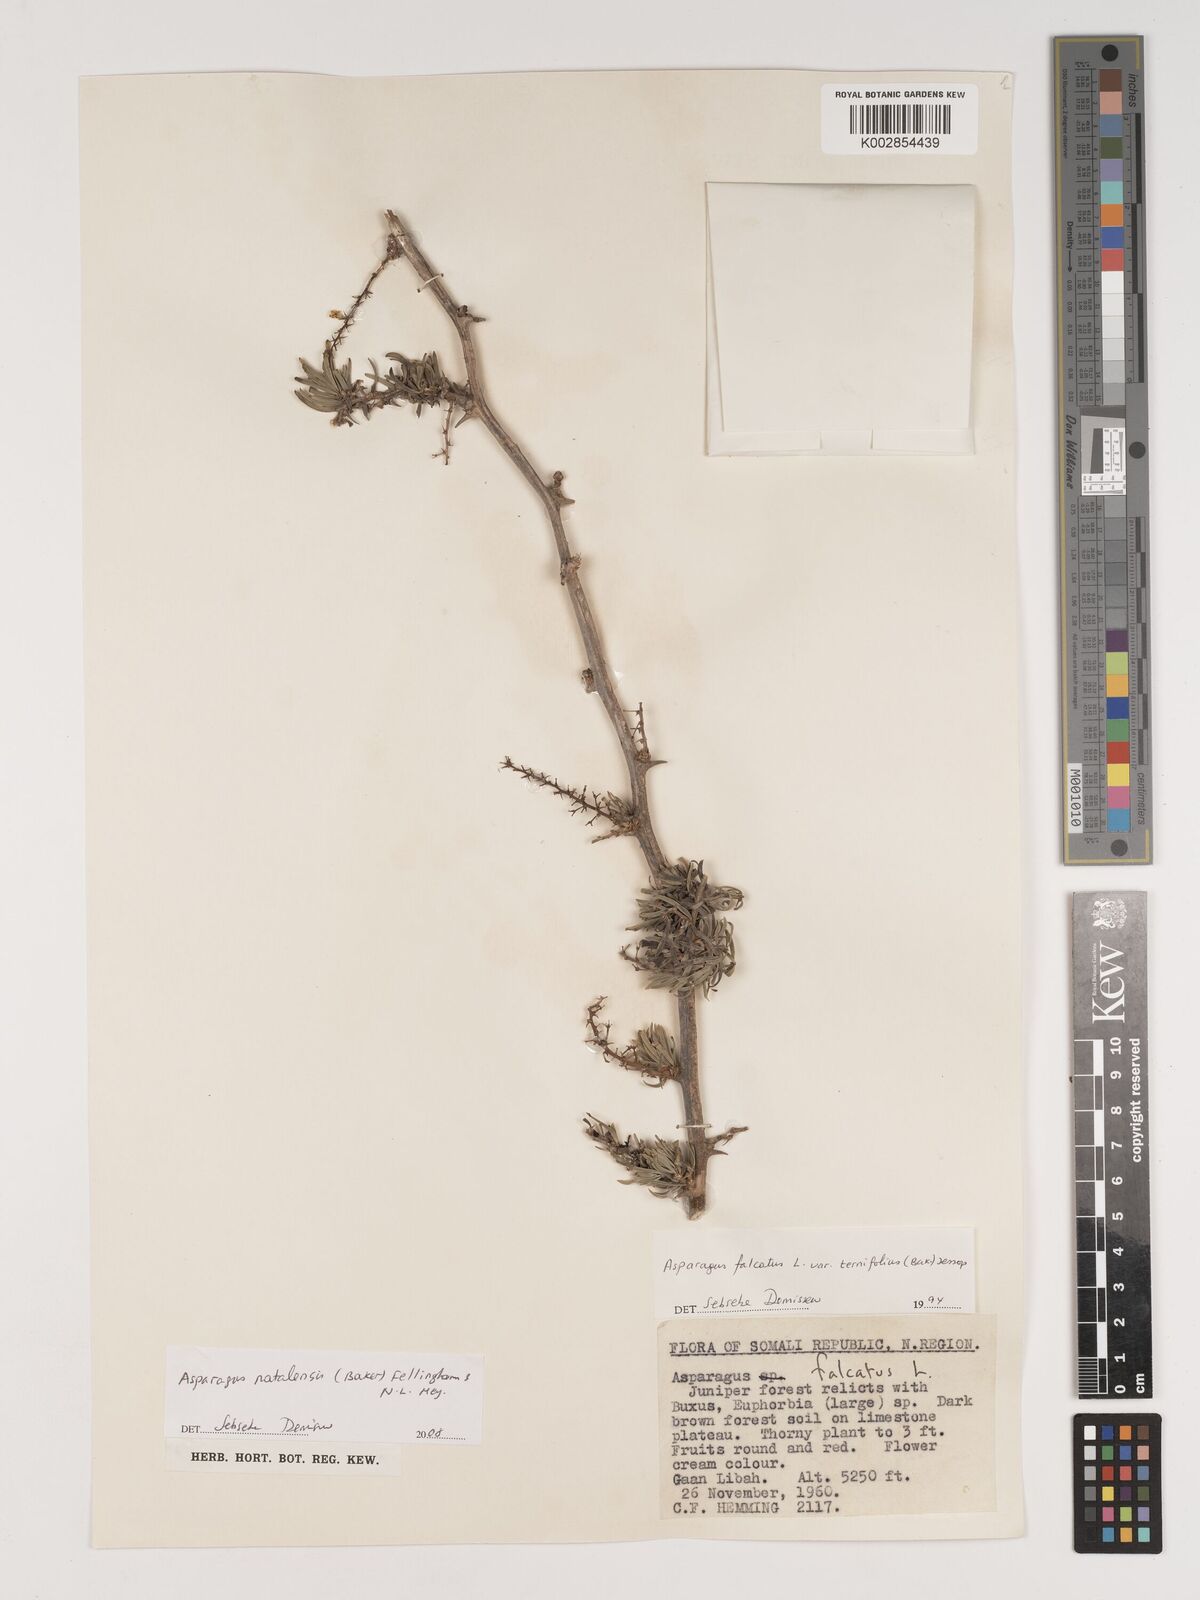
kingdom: Plantae
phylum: Tracheophyta
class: Liliopsida
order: Asparagales
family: Asparagaceae
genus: Asparagus
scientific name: Asparagus natalensis
